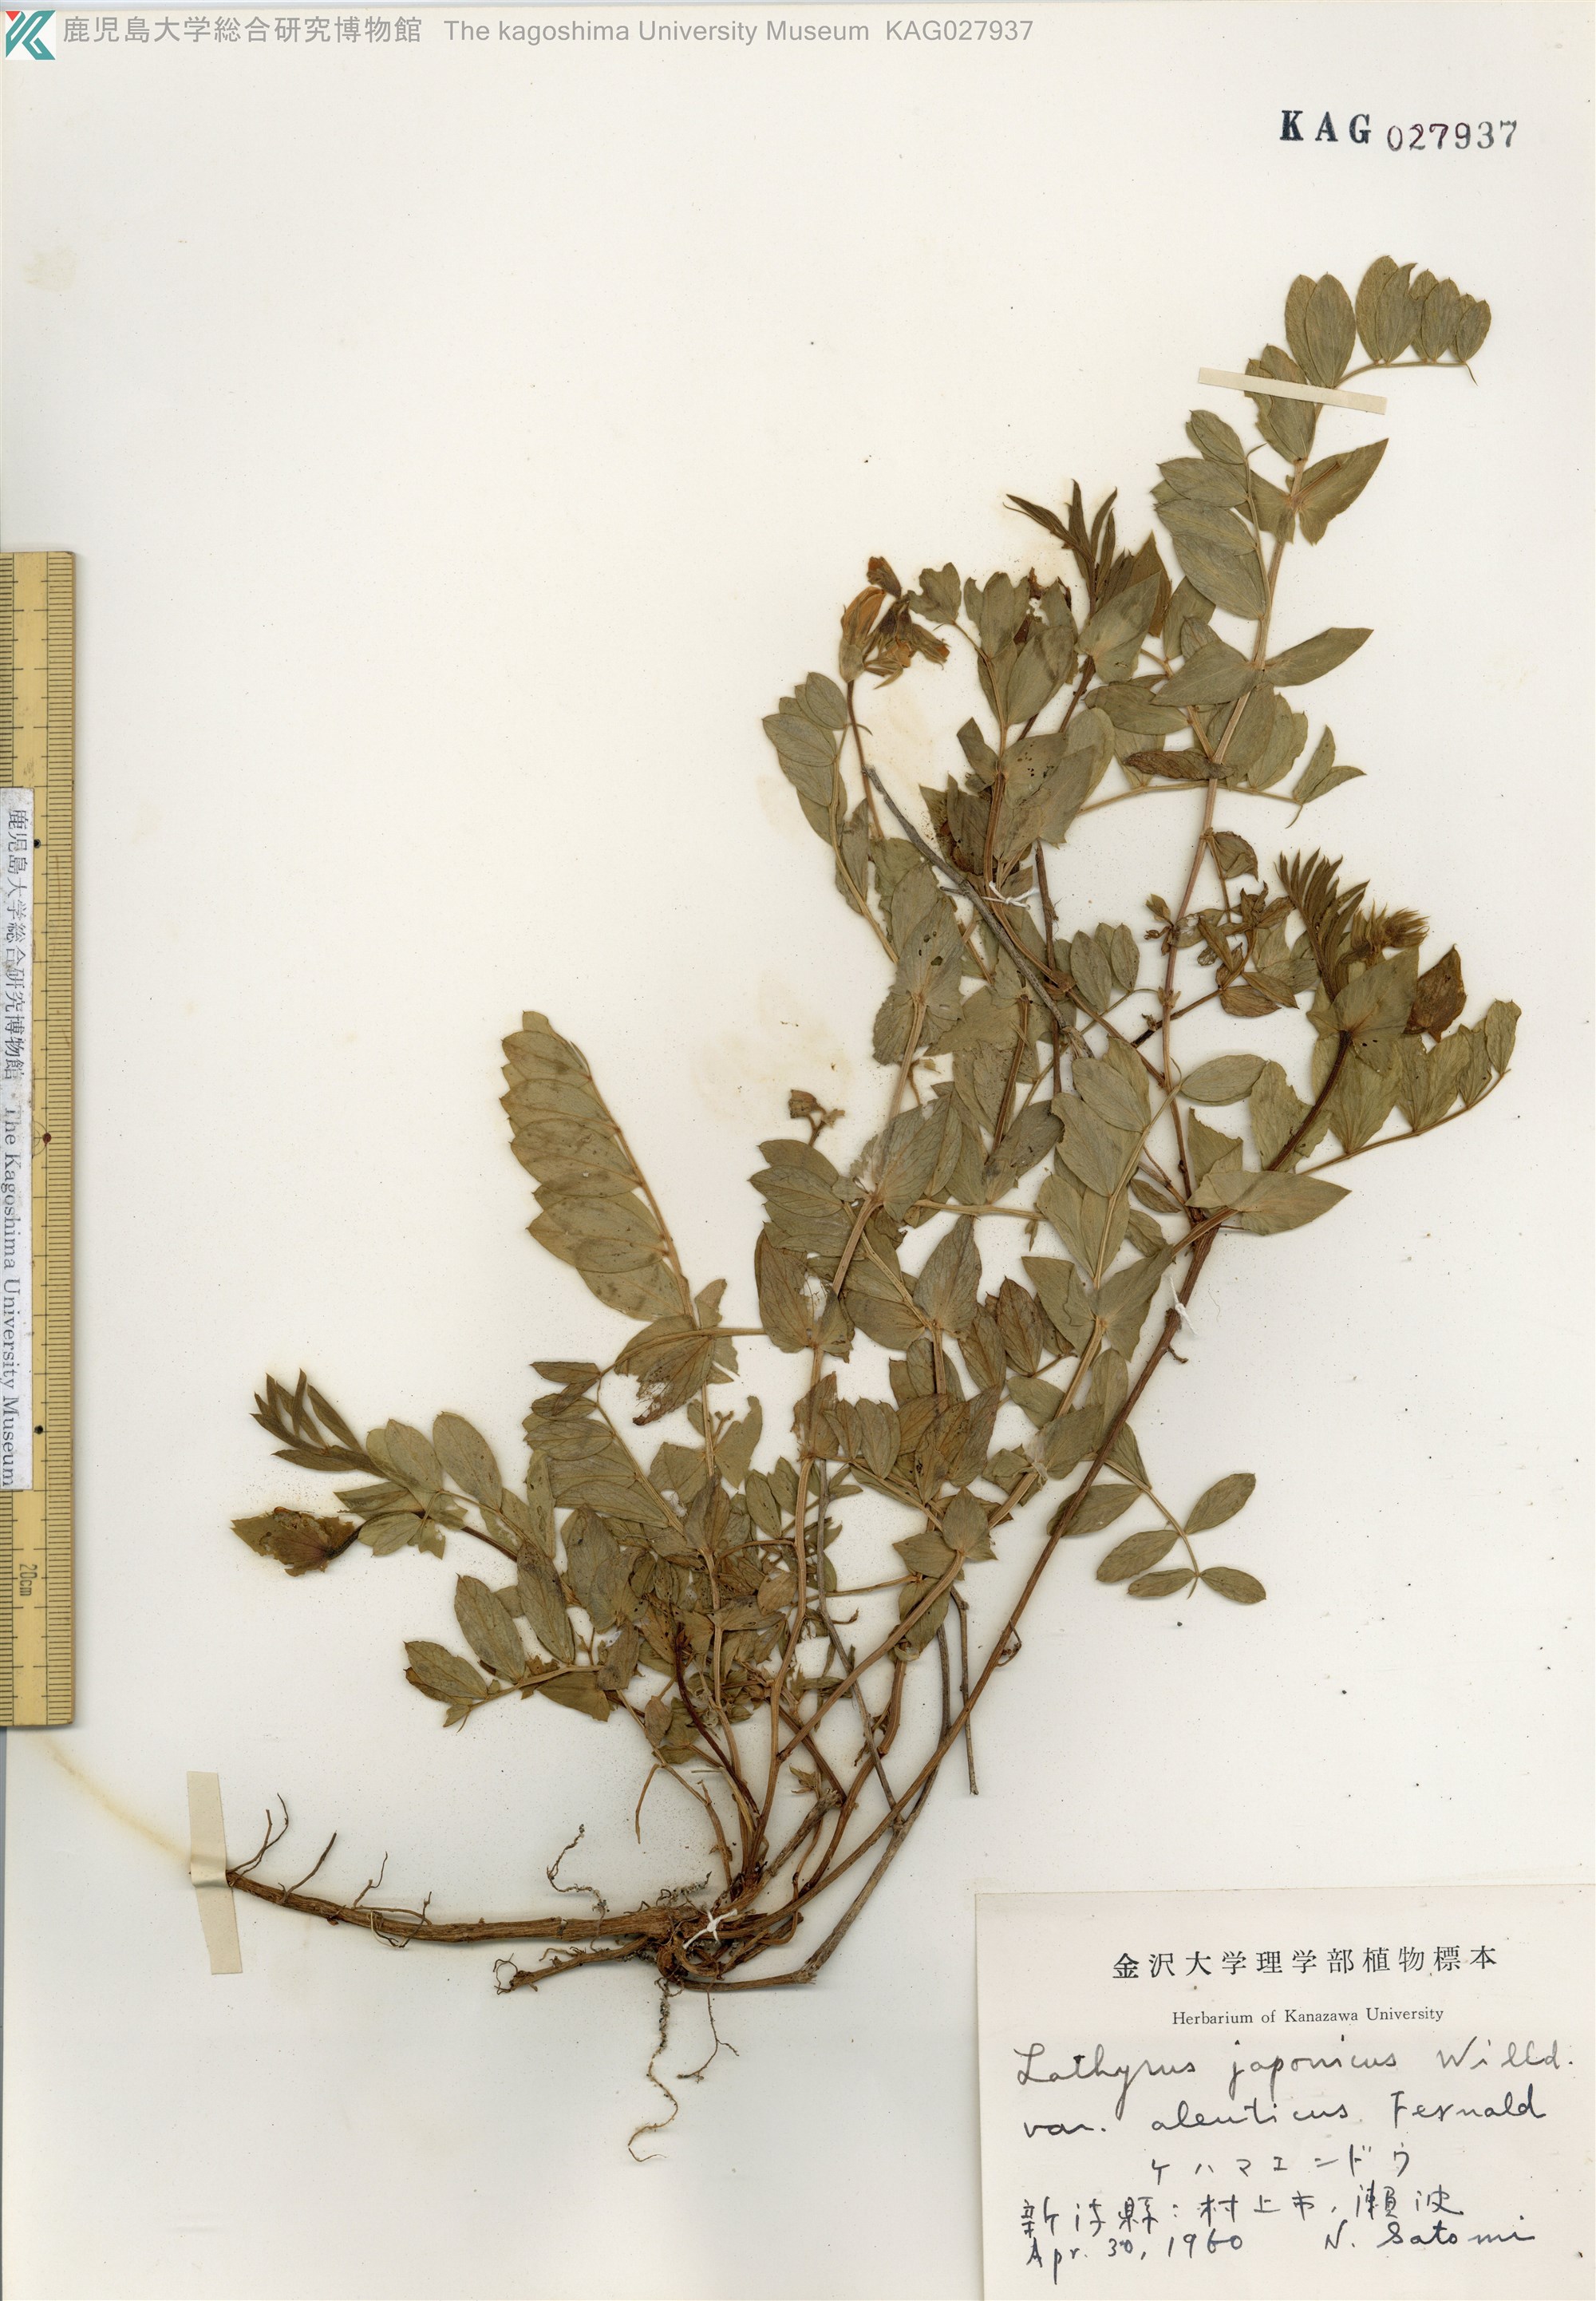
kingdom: Plantae
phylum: Tracheophyta
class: Magnoliopsida
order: Fabales
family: Fabaceae
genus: Lathyrus
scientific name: Lathyrus japonicus
